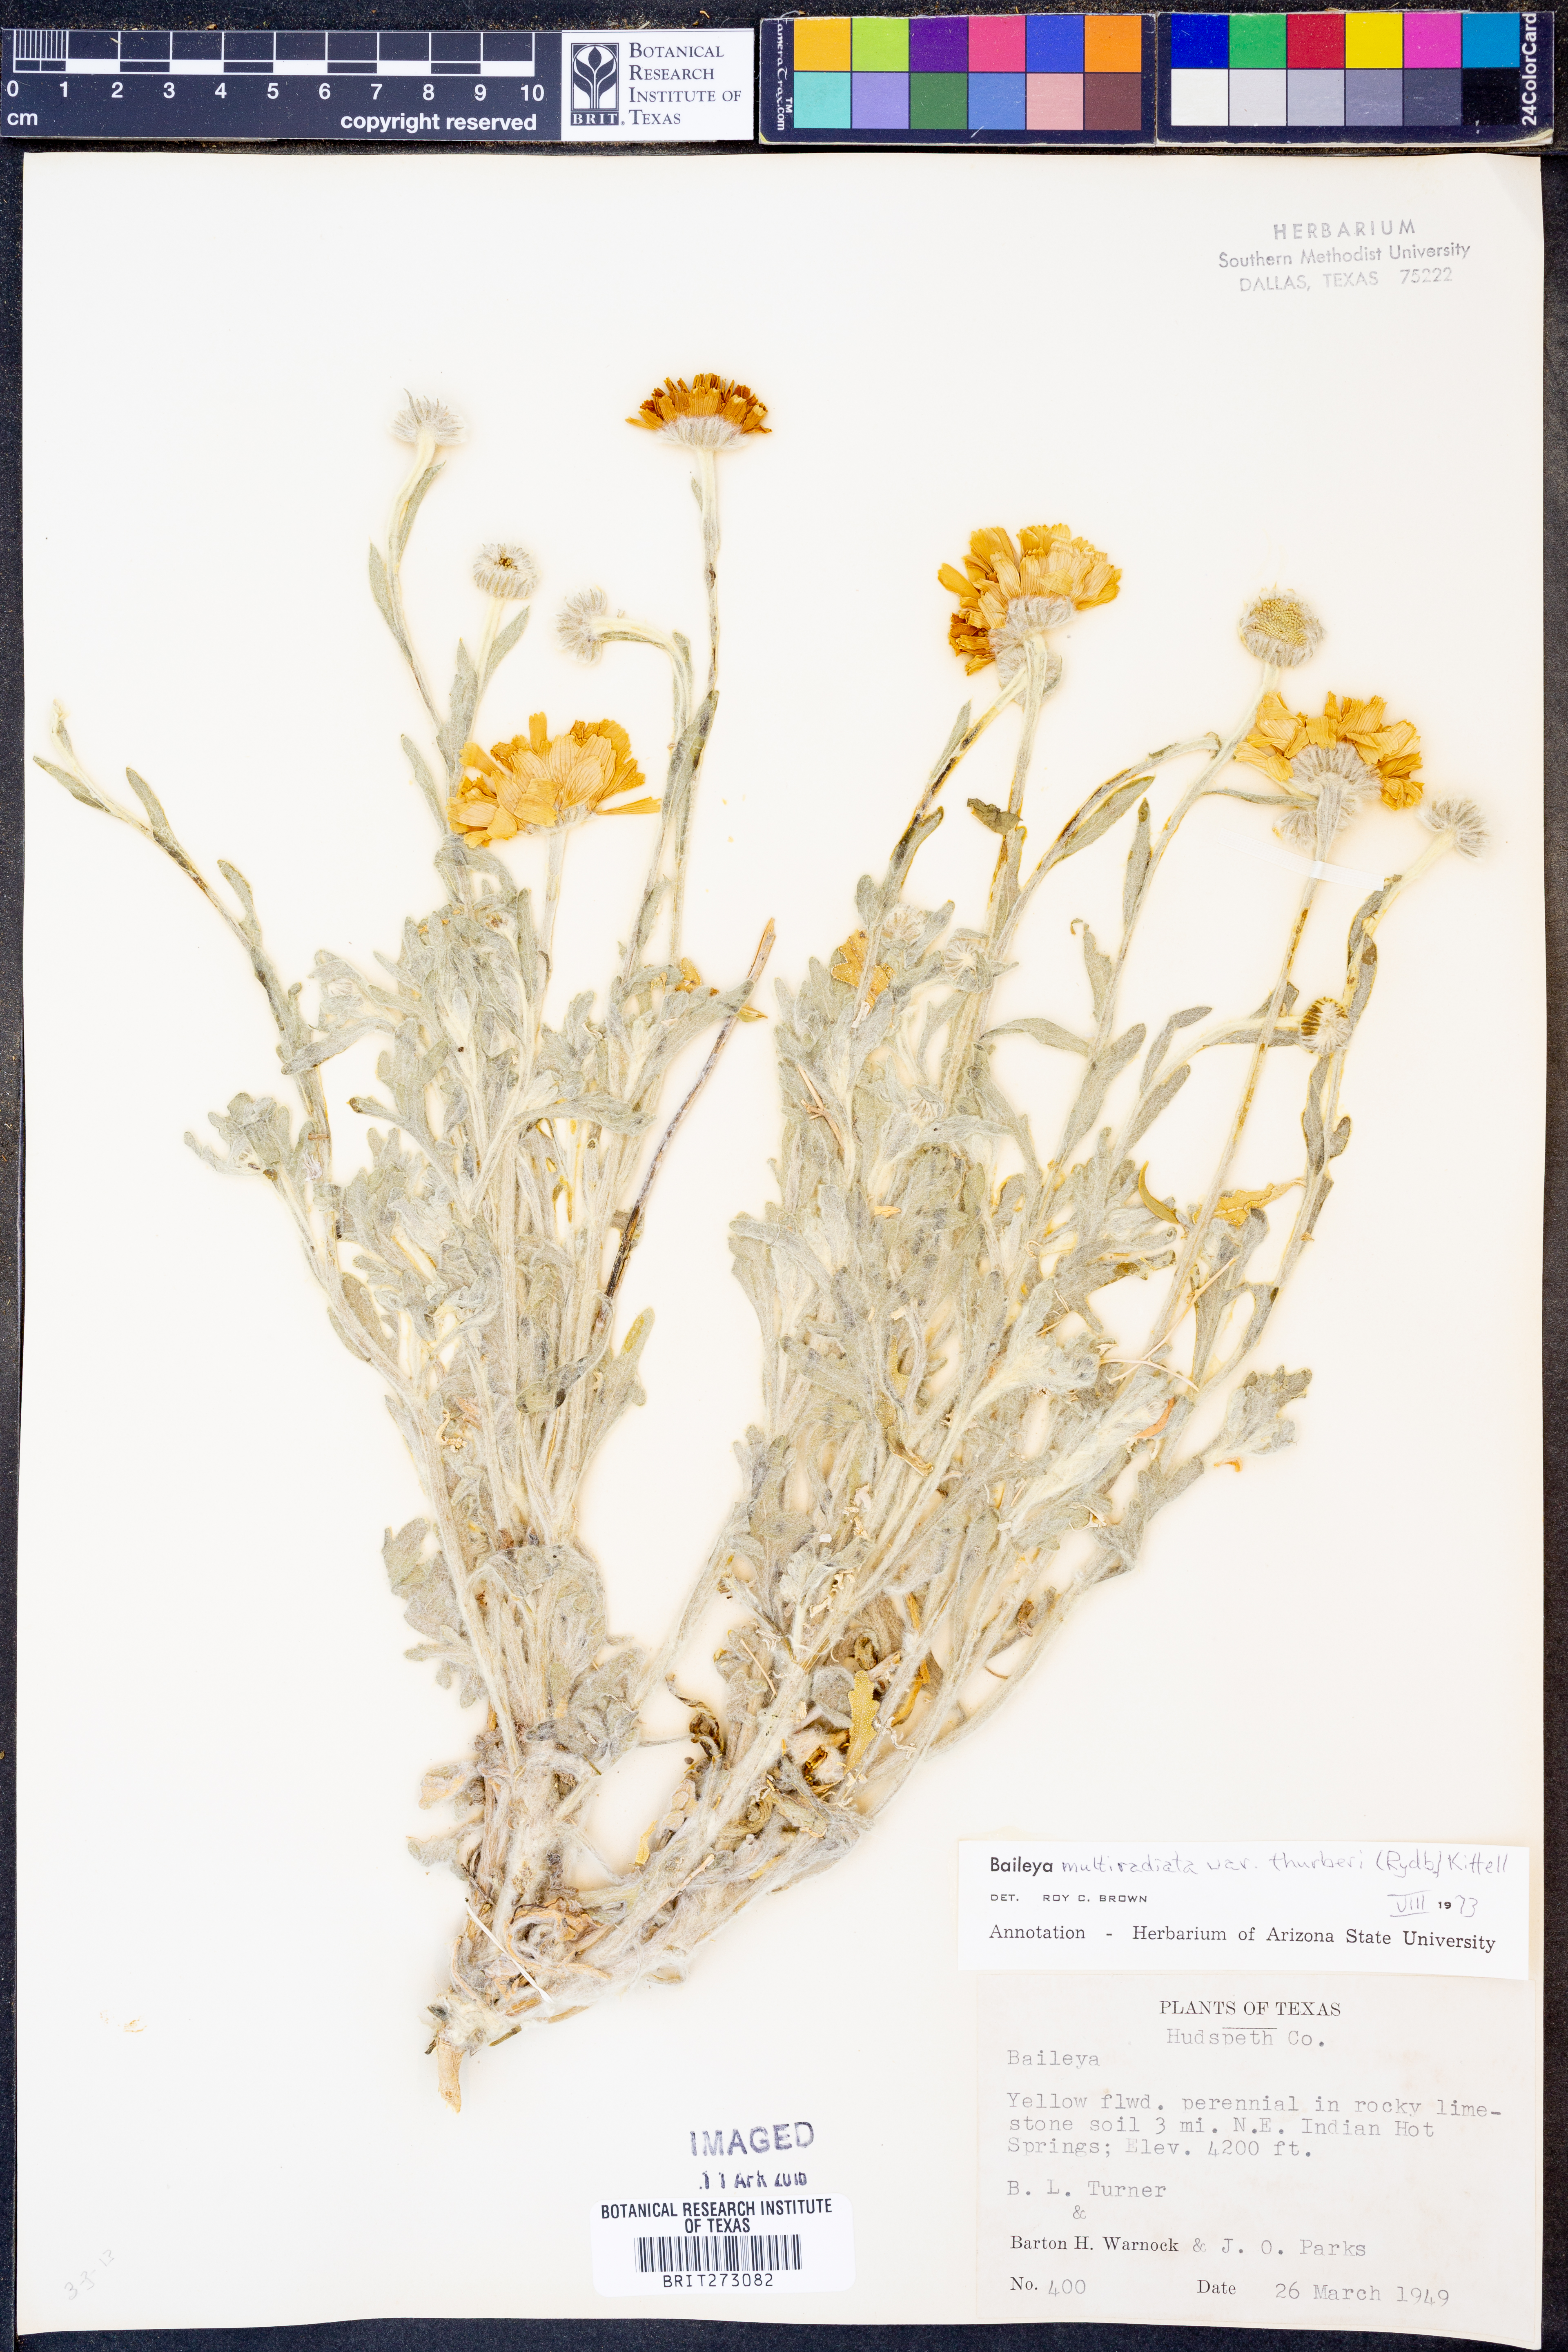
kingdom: Plantae
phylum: Tracheophyta
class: Magnoliopsida
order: Asterales
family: Asteraceae
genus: Baileya
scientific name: Baileya multiradiata
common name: Desert-marigold
